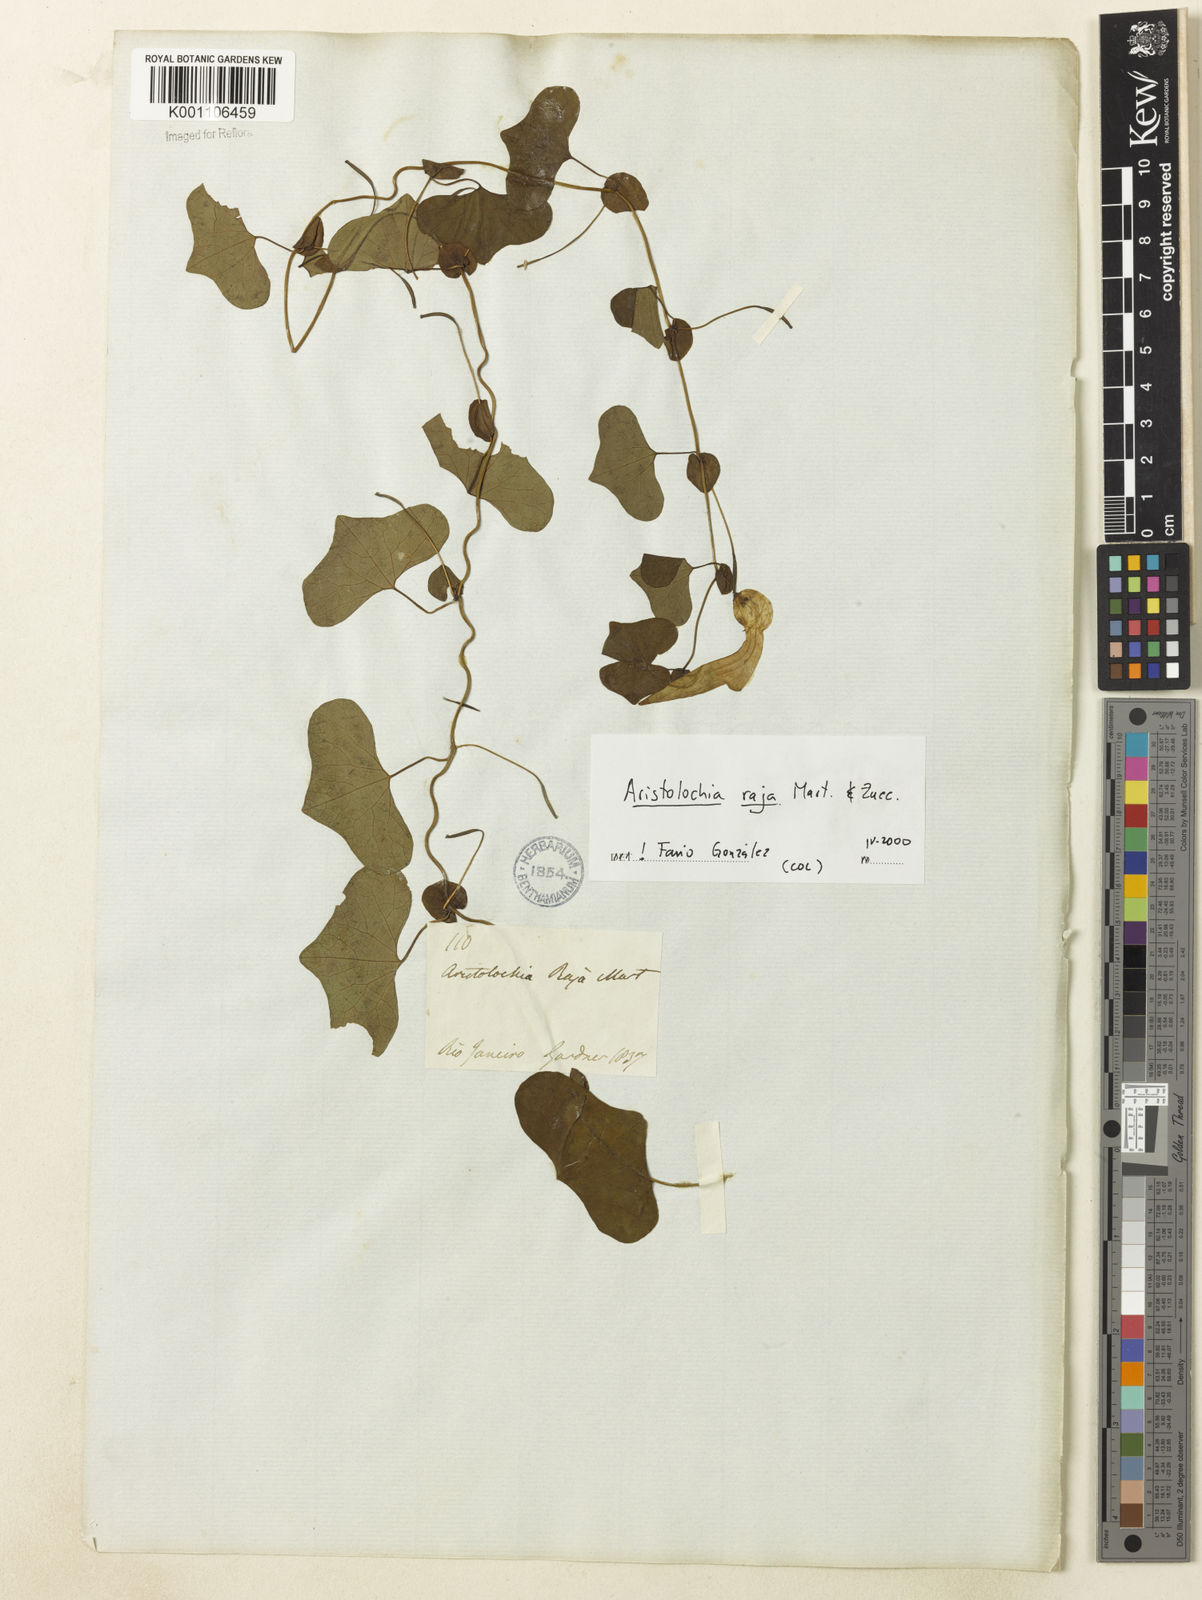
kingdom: Plantae
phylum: Tracheophyta
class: Magnoliopsida
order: Piperales
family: Aristolochiaceae
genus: Aristolochia
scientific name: Aristolochia raja
